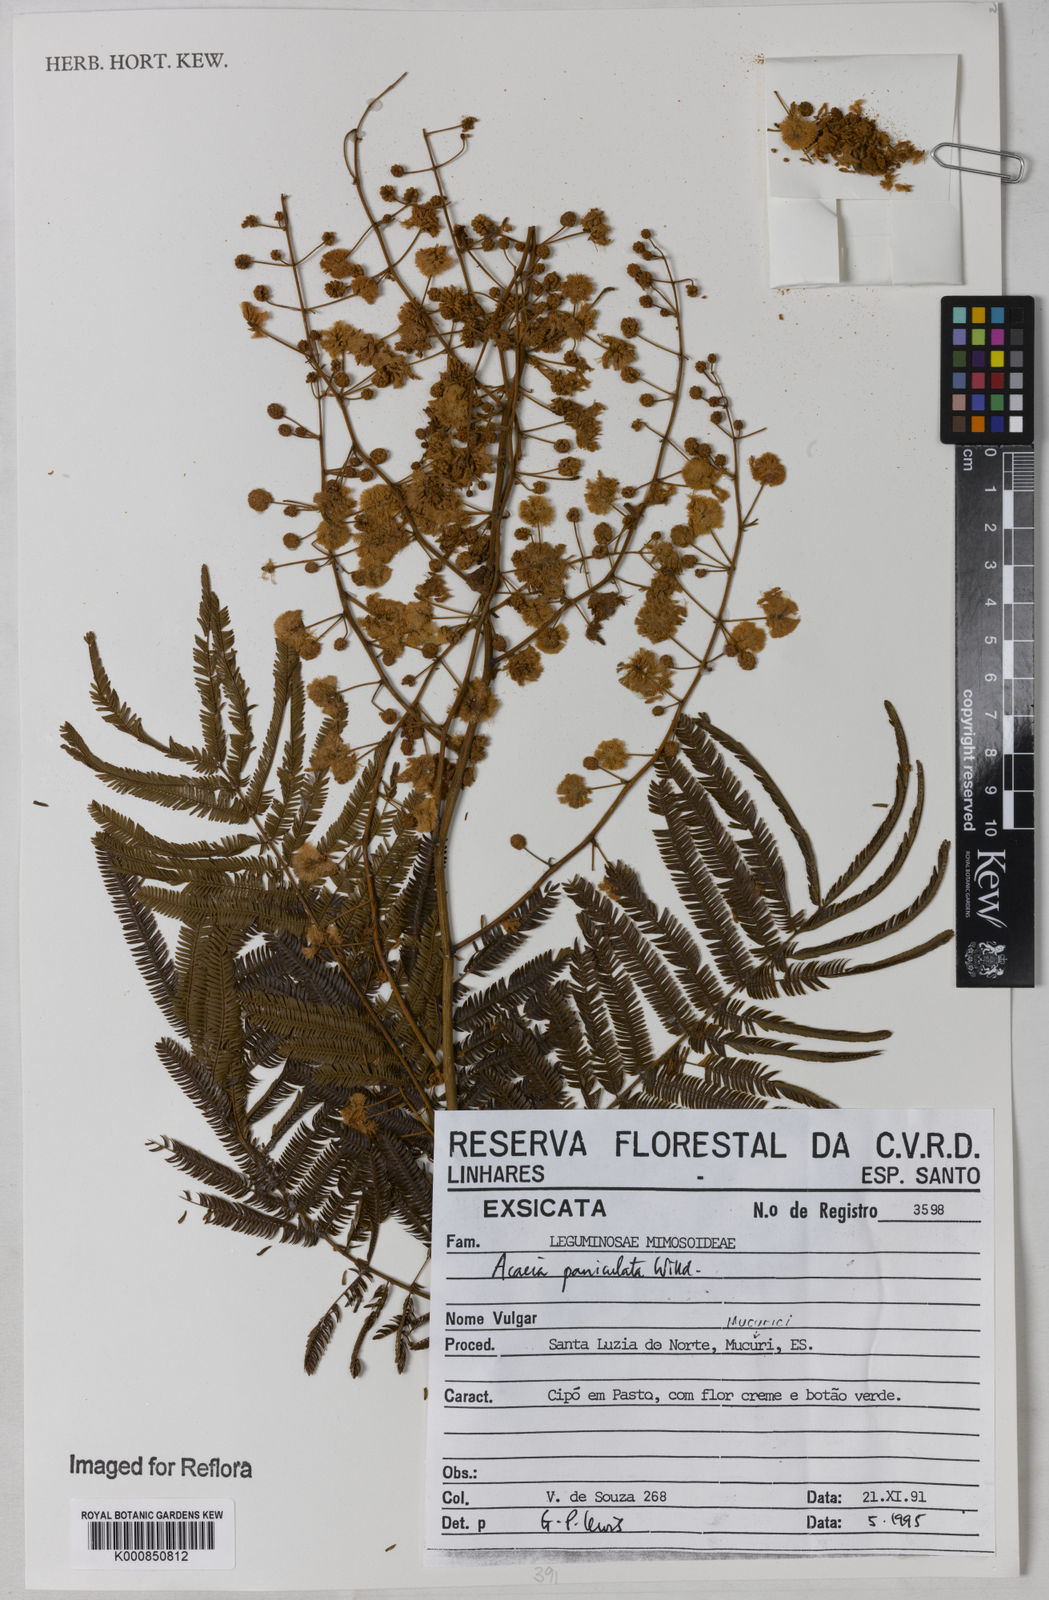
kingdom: Plantae
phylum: Tracheophyta
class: Magnoliopsida
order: Fabales
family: Fabaceae
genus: Senegalia
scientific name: Senegalia tenuifolia
